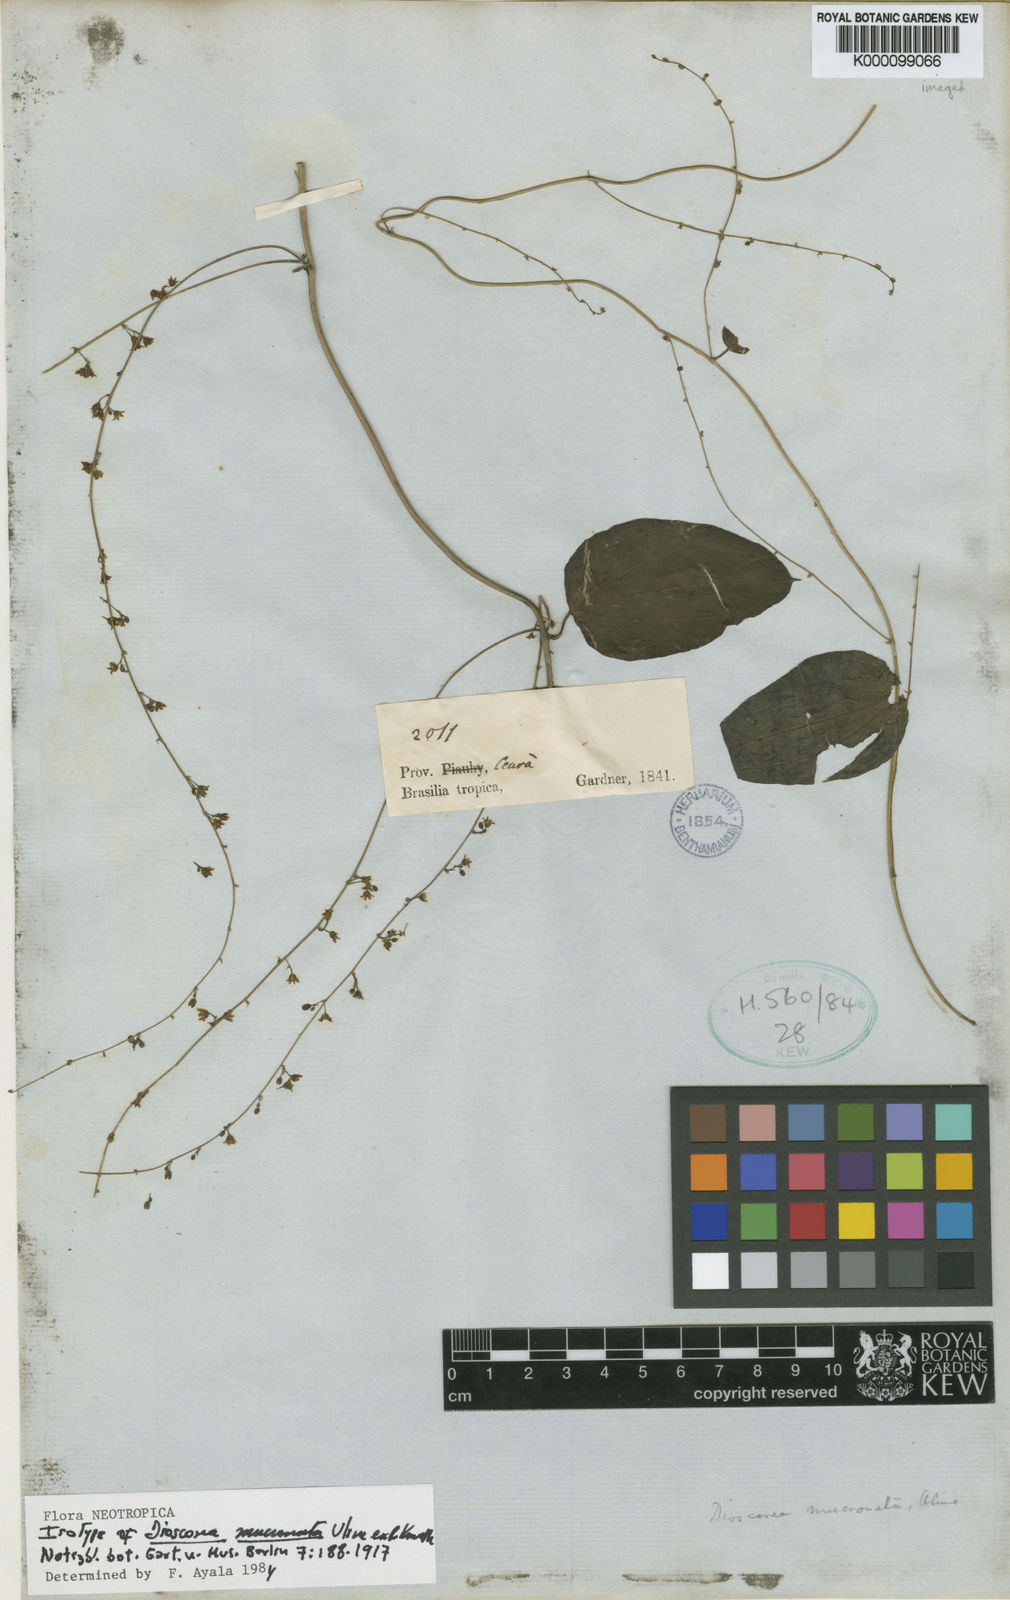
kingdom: Plantae
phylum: Tracheophyta
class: Liliopsida
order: Dioscoreales
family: Dioscoreaceae
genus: Dioscorea
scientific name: Dioscorea mucronata
